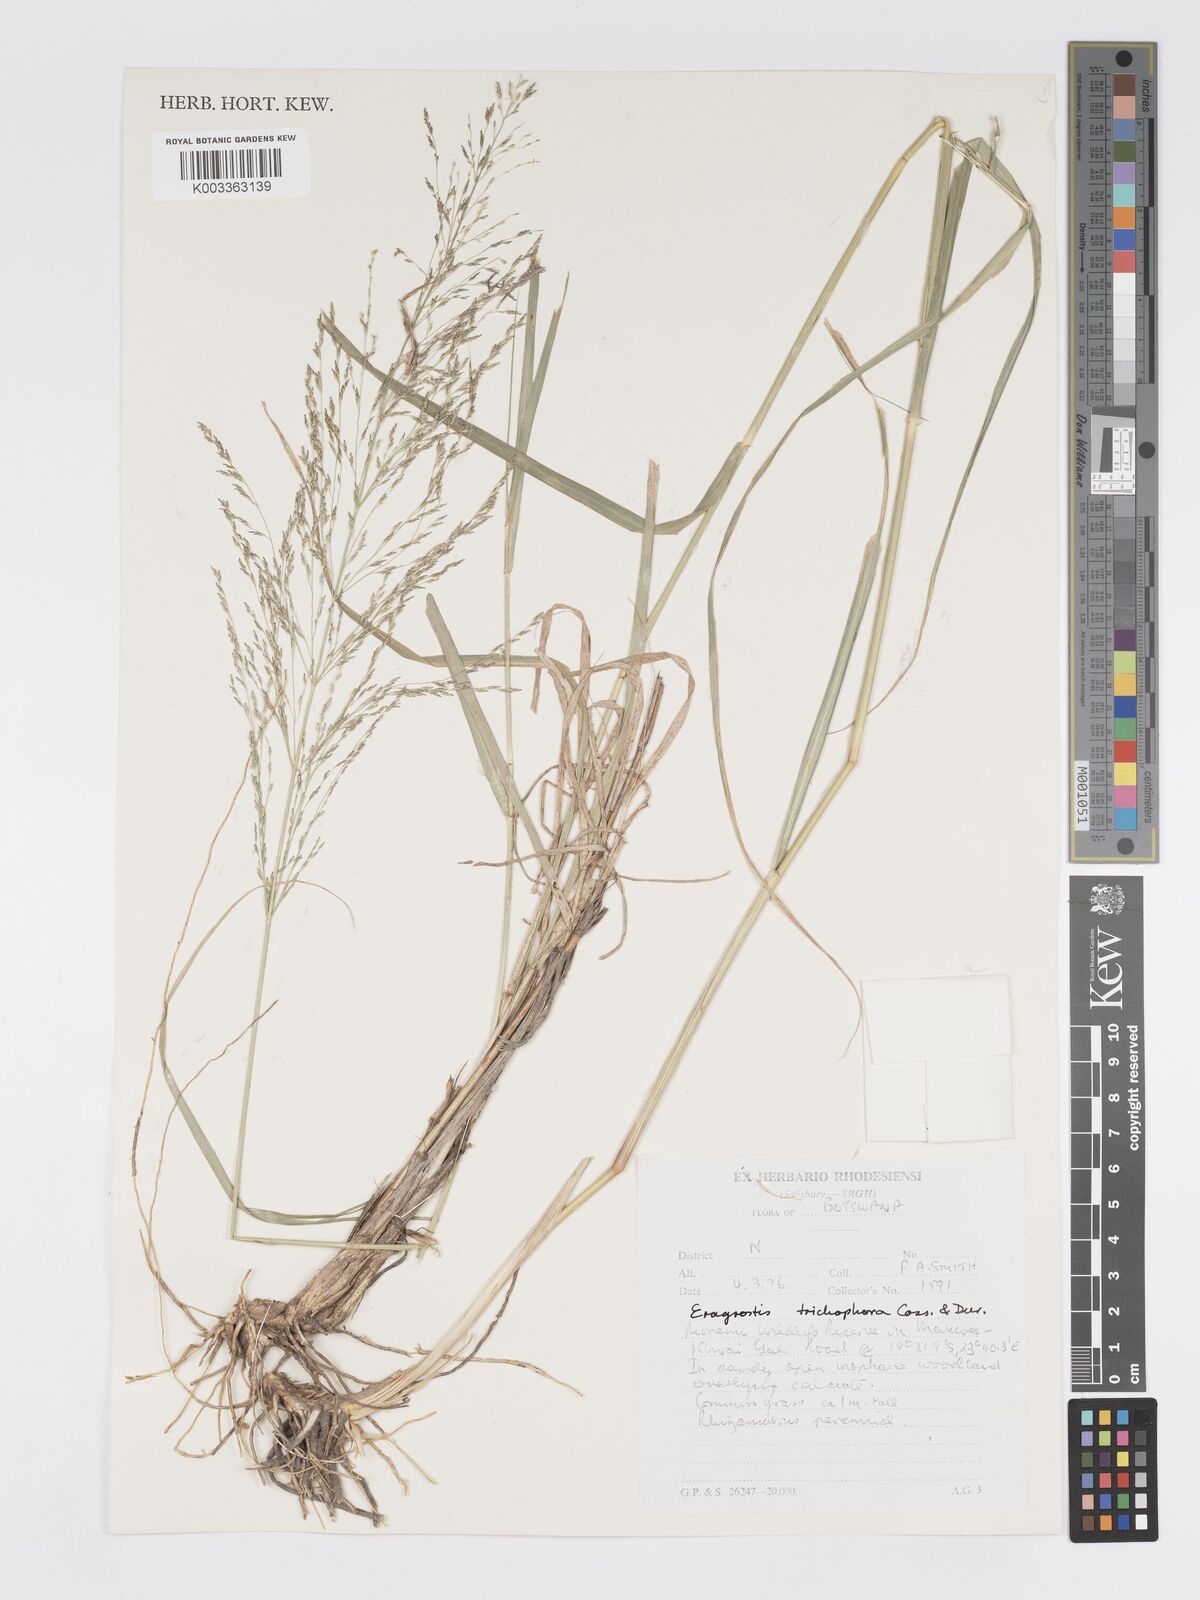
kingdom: Plantae
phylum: Tracheophyta
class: Liliopsida
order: Poales
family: Poaceae
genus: Eragrostis
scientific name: Eragrostis cylindriflora
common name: Cylinderflower lovegrass
